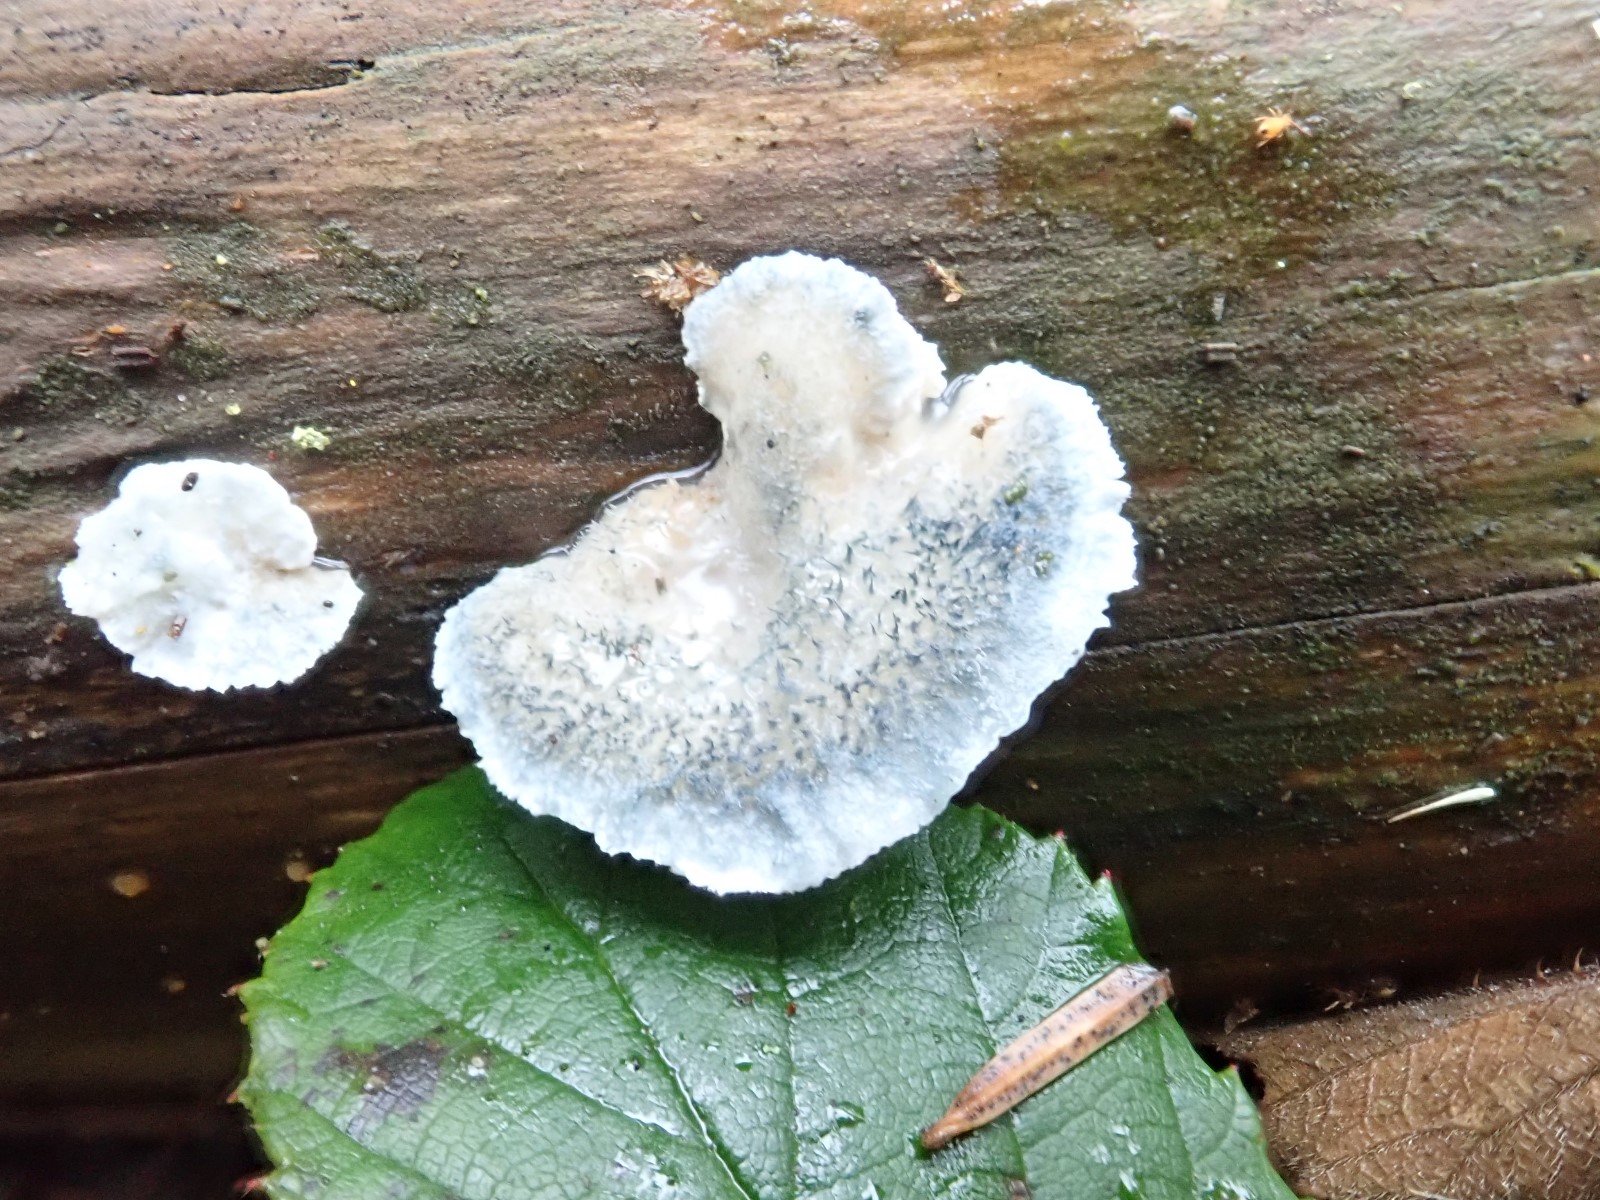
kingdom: Fungi
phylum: Basidiomycota
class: Agaricomycetes
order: Polyporales
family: Polyporaceae
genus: Cyanosporus
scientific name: Cyanosporus caesius
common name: blålig kødporesvamp
